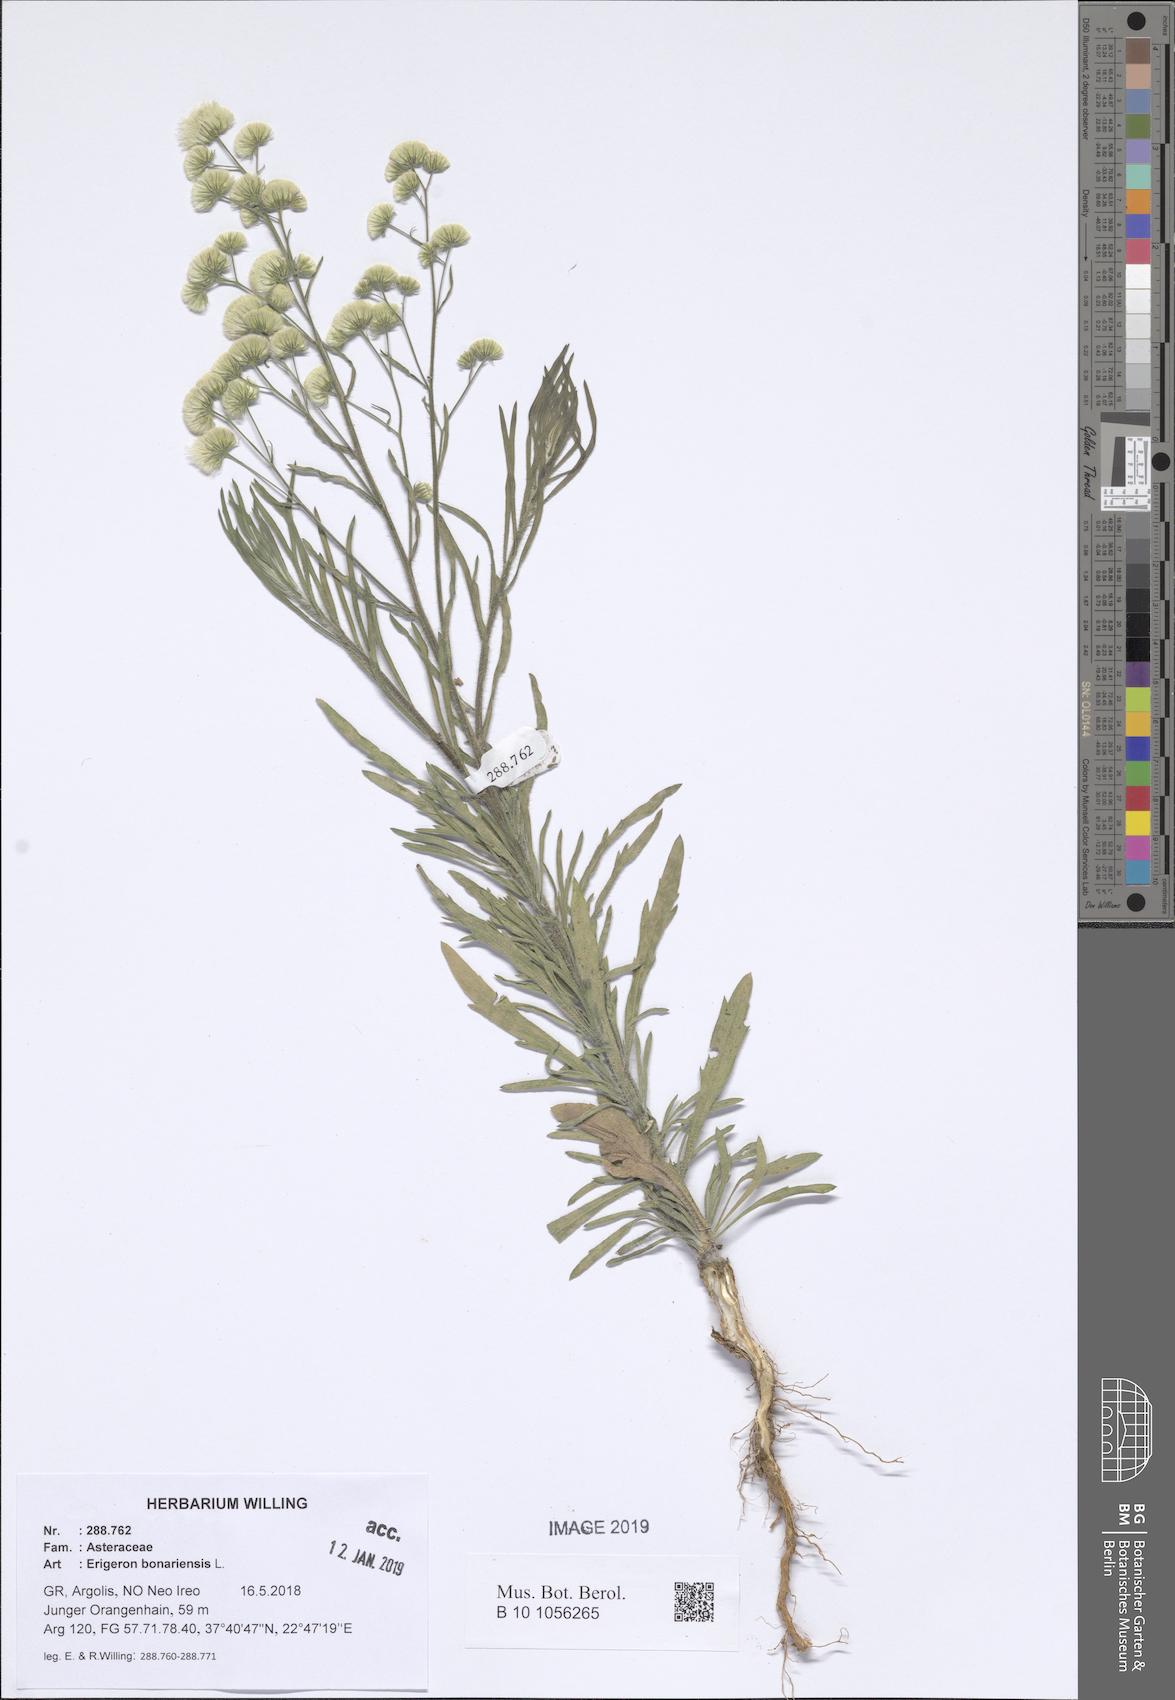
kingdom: Plantae
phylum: Tracheophyta
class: Magnoliopsida
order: Asterales
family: Asteraceae
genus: Erigeron
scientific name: Erigeron bonariensis
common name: Argentine fleabane
